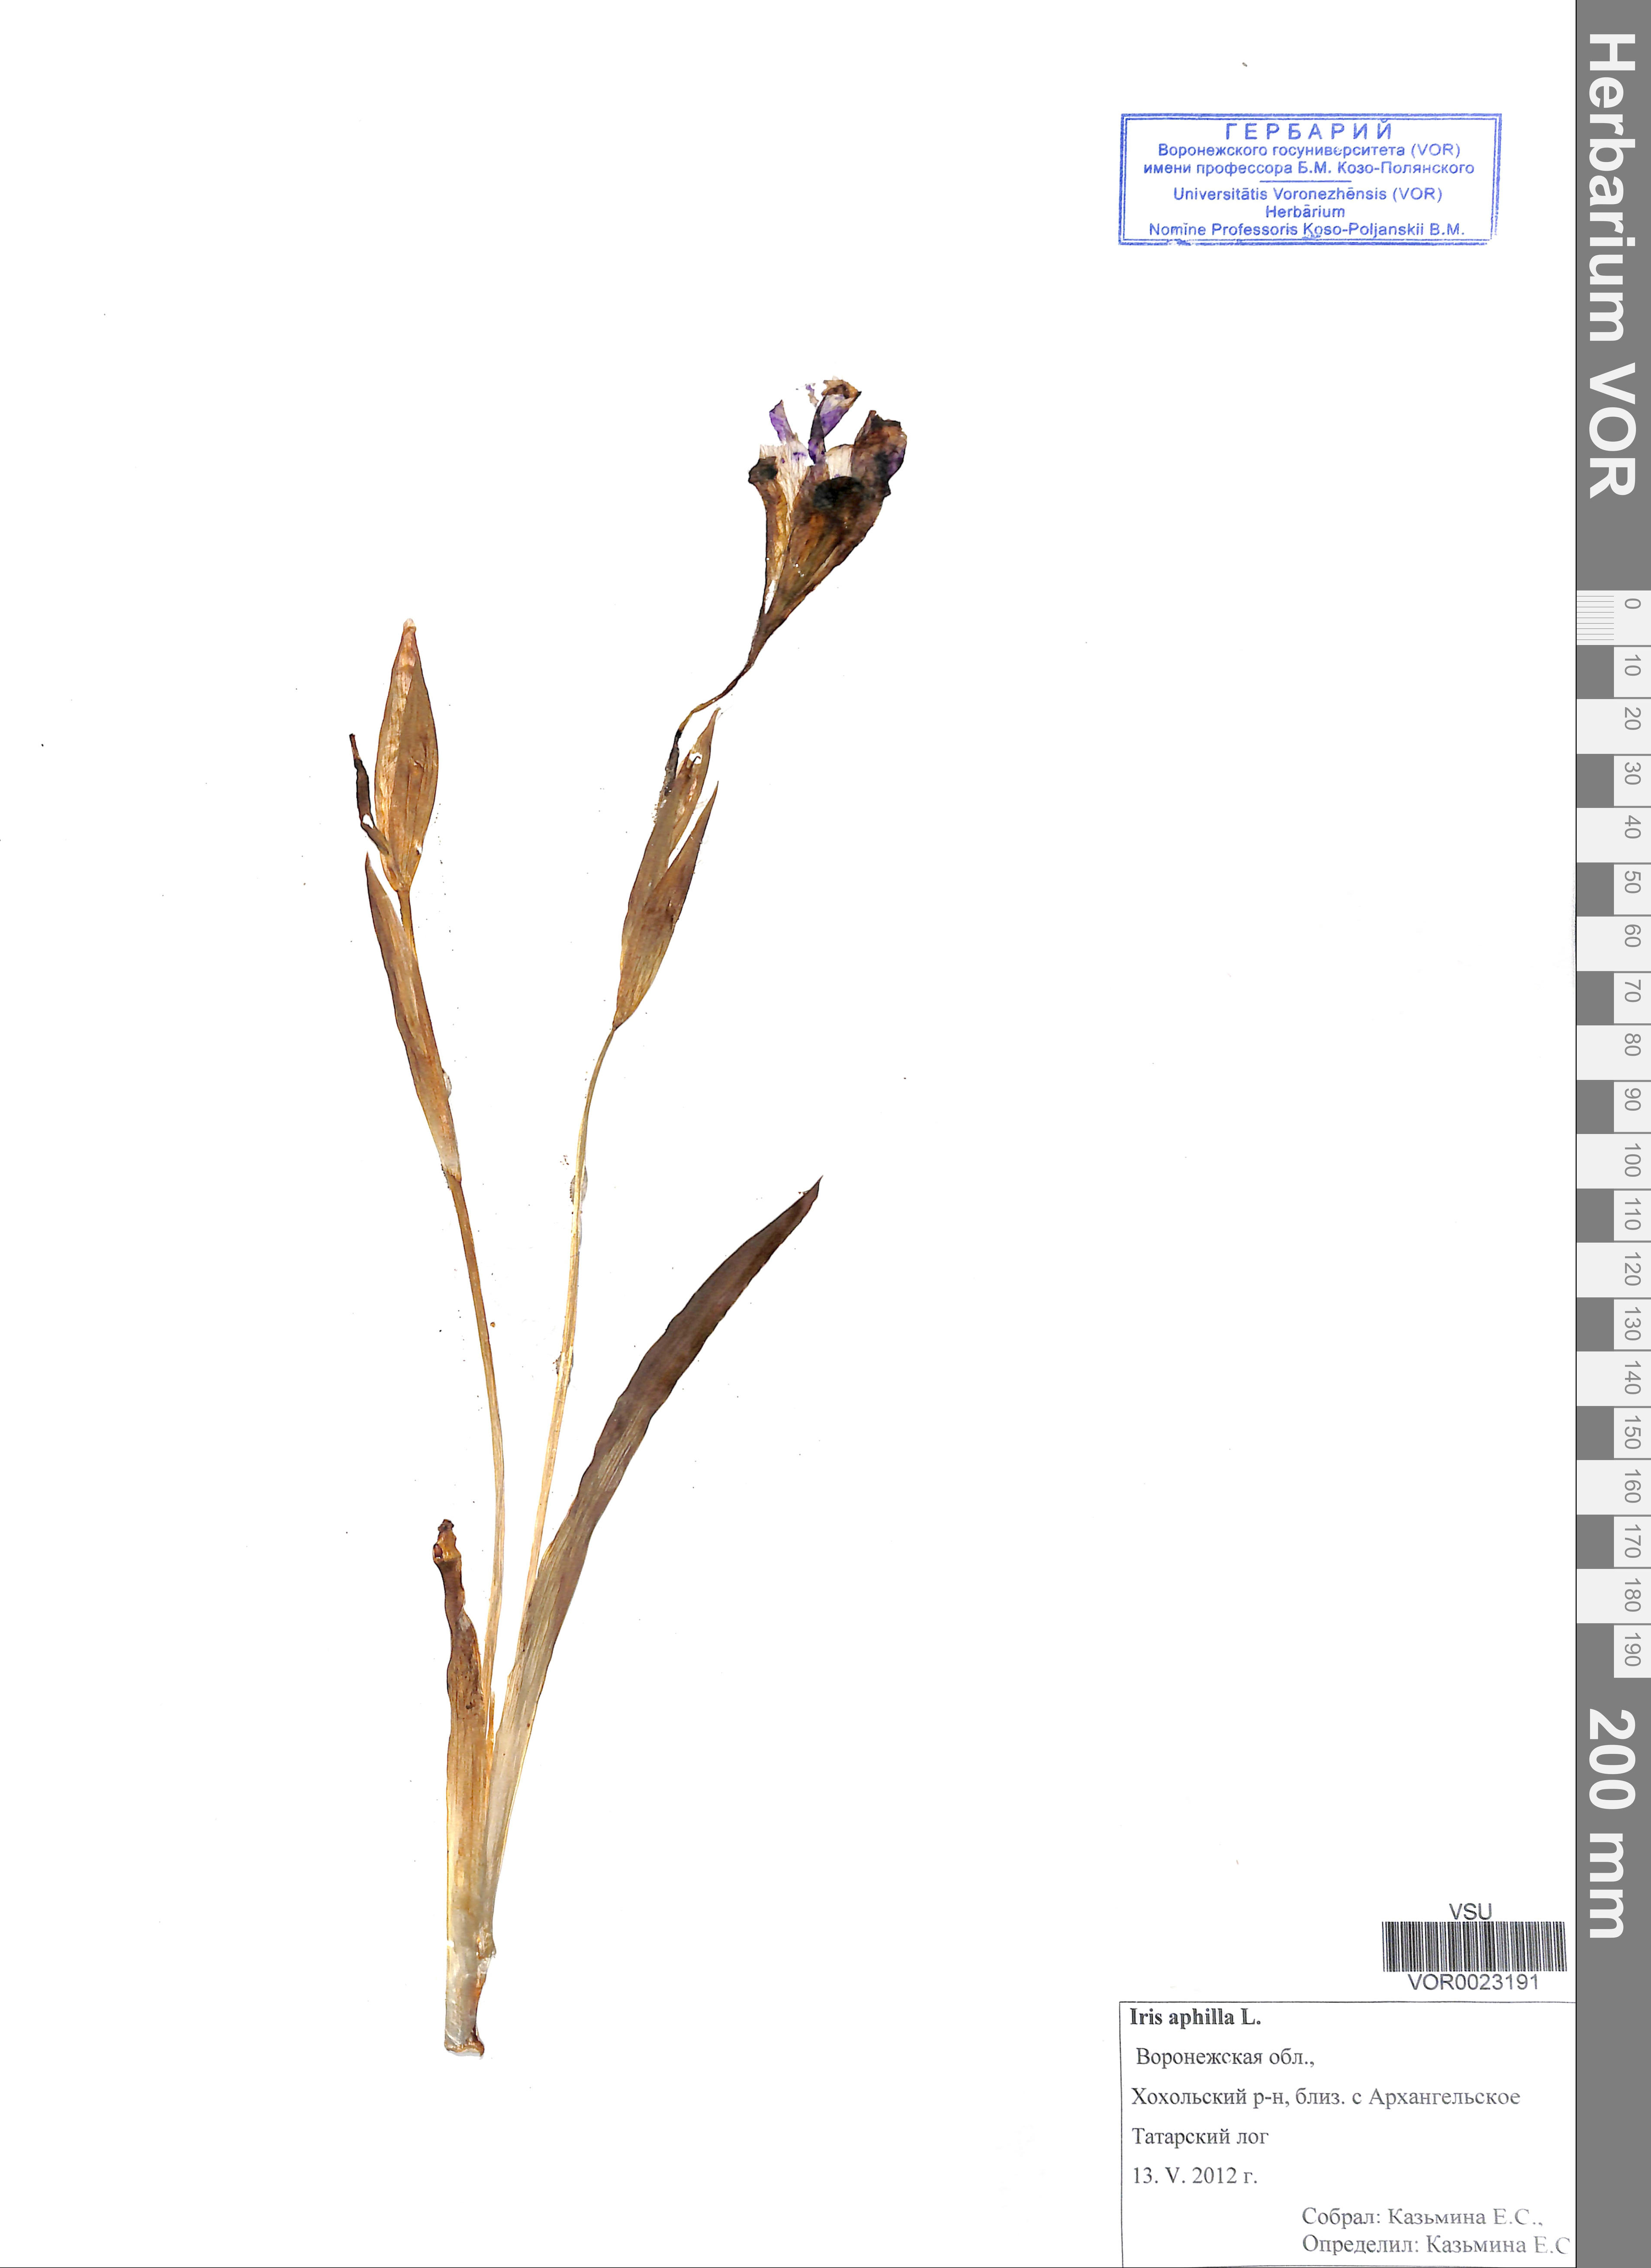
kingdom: Plantae
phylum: Tracheophyta
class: Liliopsida
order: Asparagales
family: Iridaceae
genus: Iris
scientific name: Iris aphylla
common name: Stool iris
